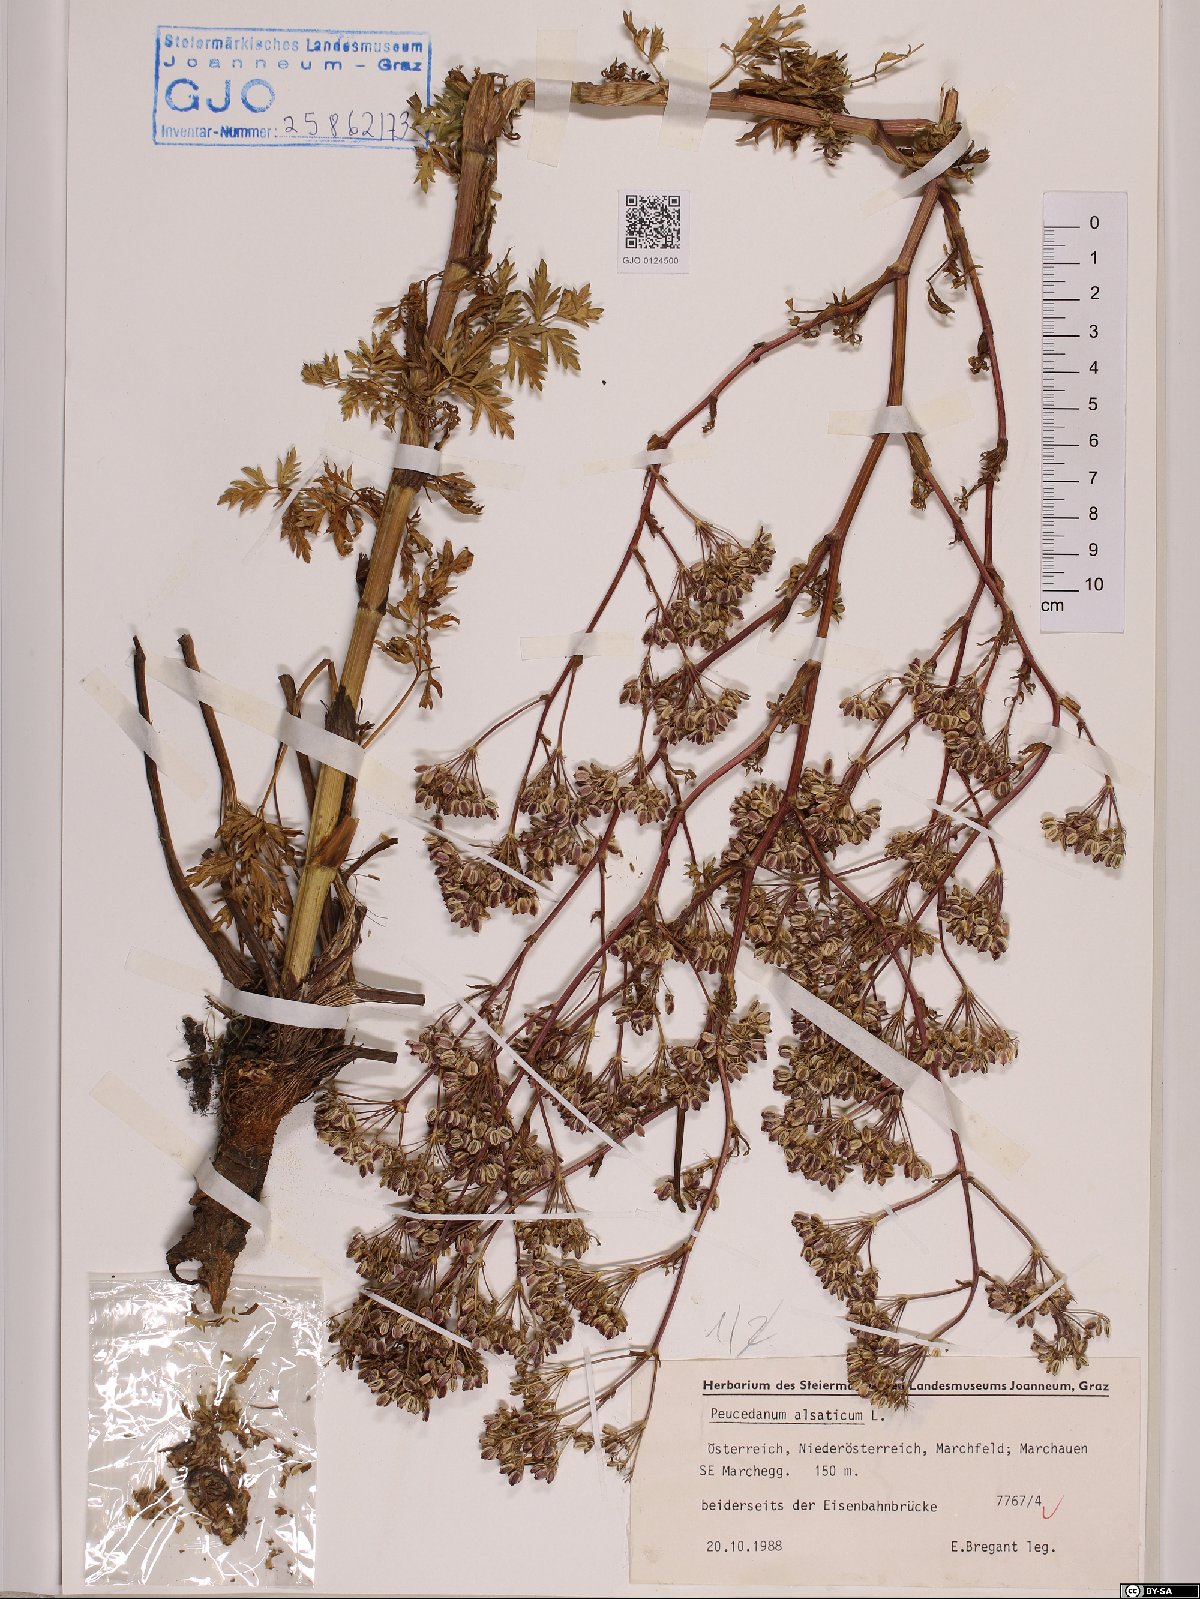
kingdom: Plantae
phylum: Tracheophyta
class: Magnoliopsida
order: Apiales
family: Apiaceae
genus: Xanthoselinum
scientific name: Xanthoselinum alsaticum
